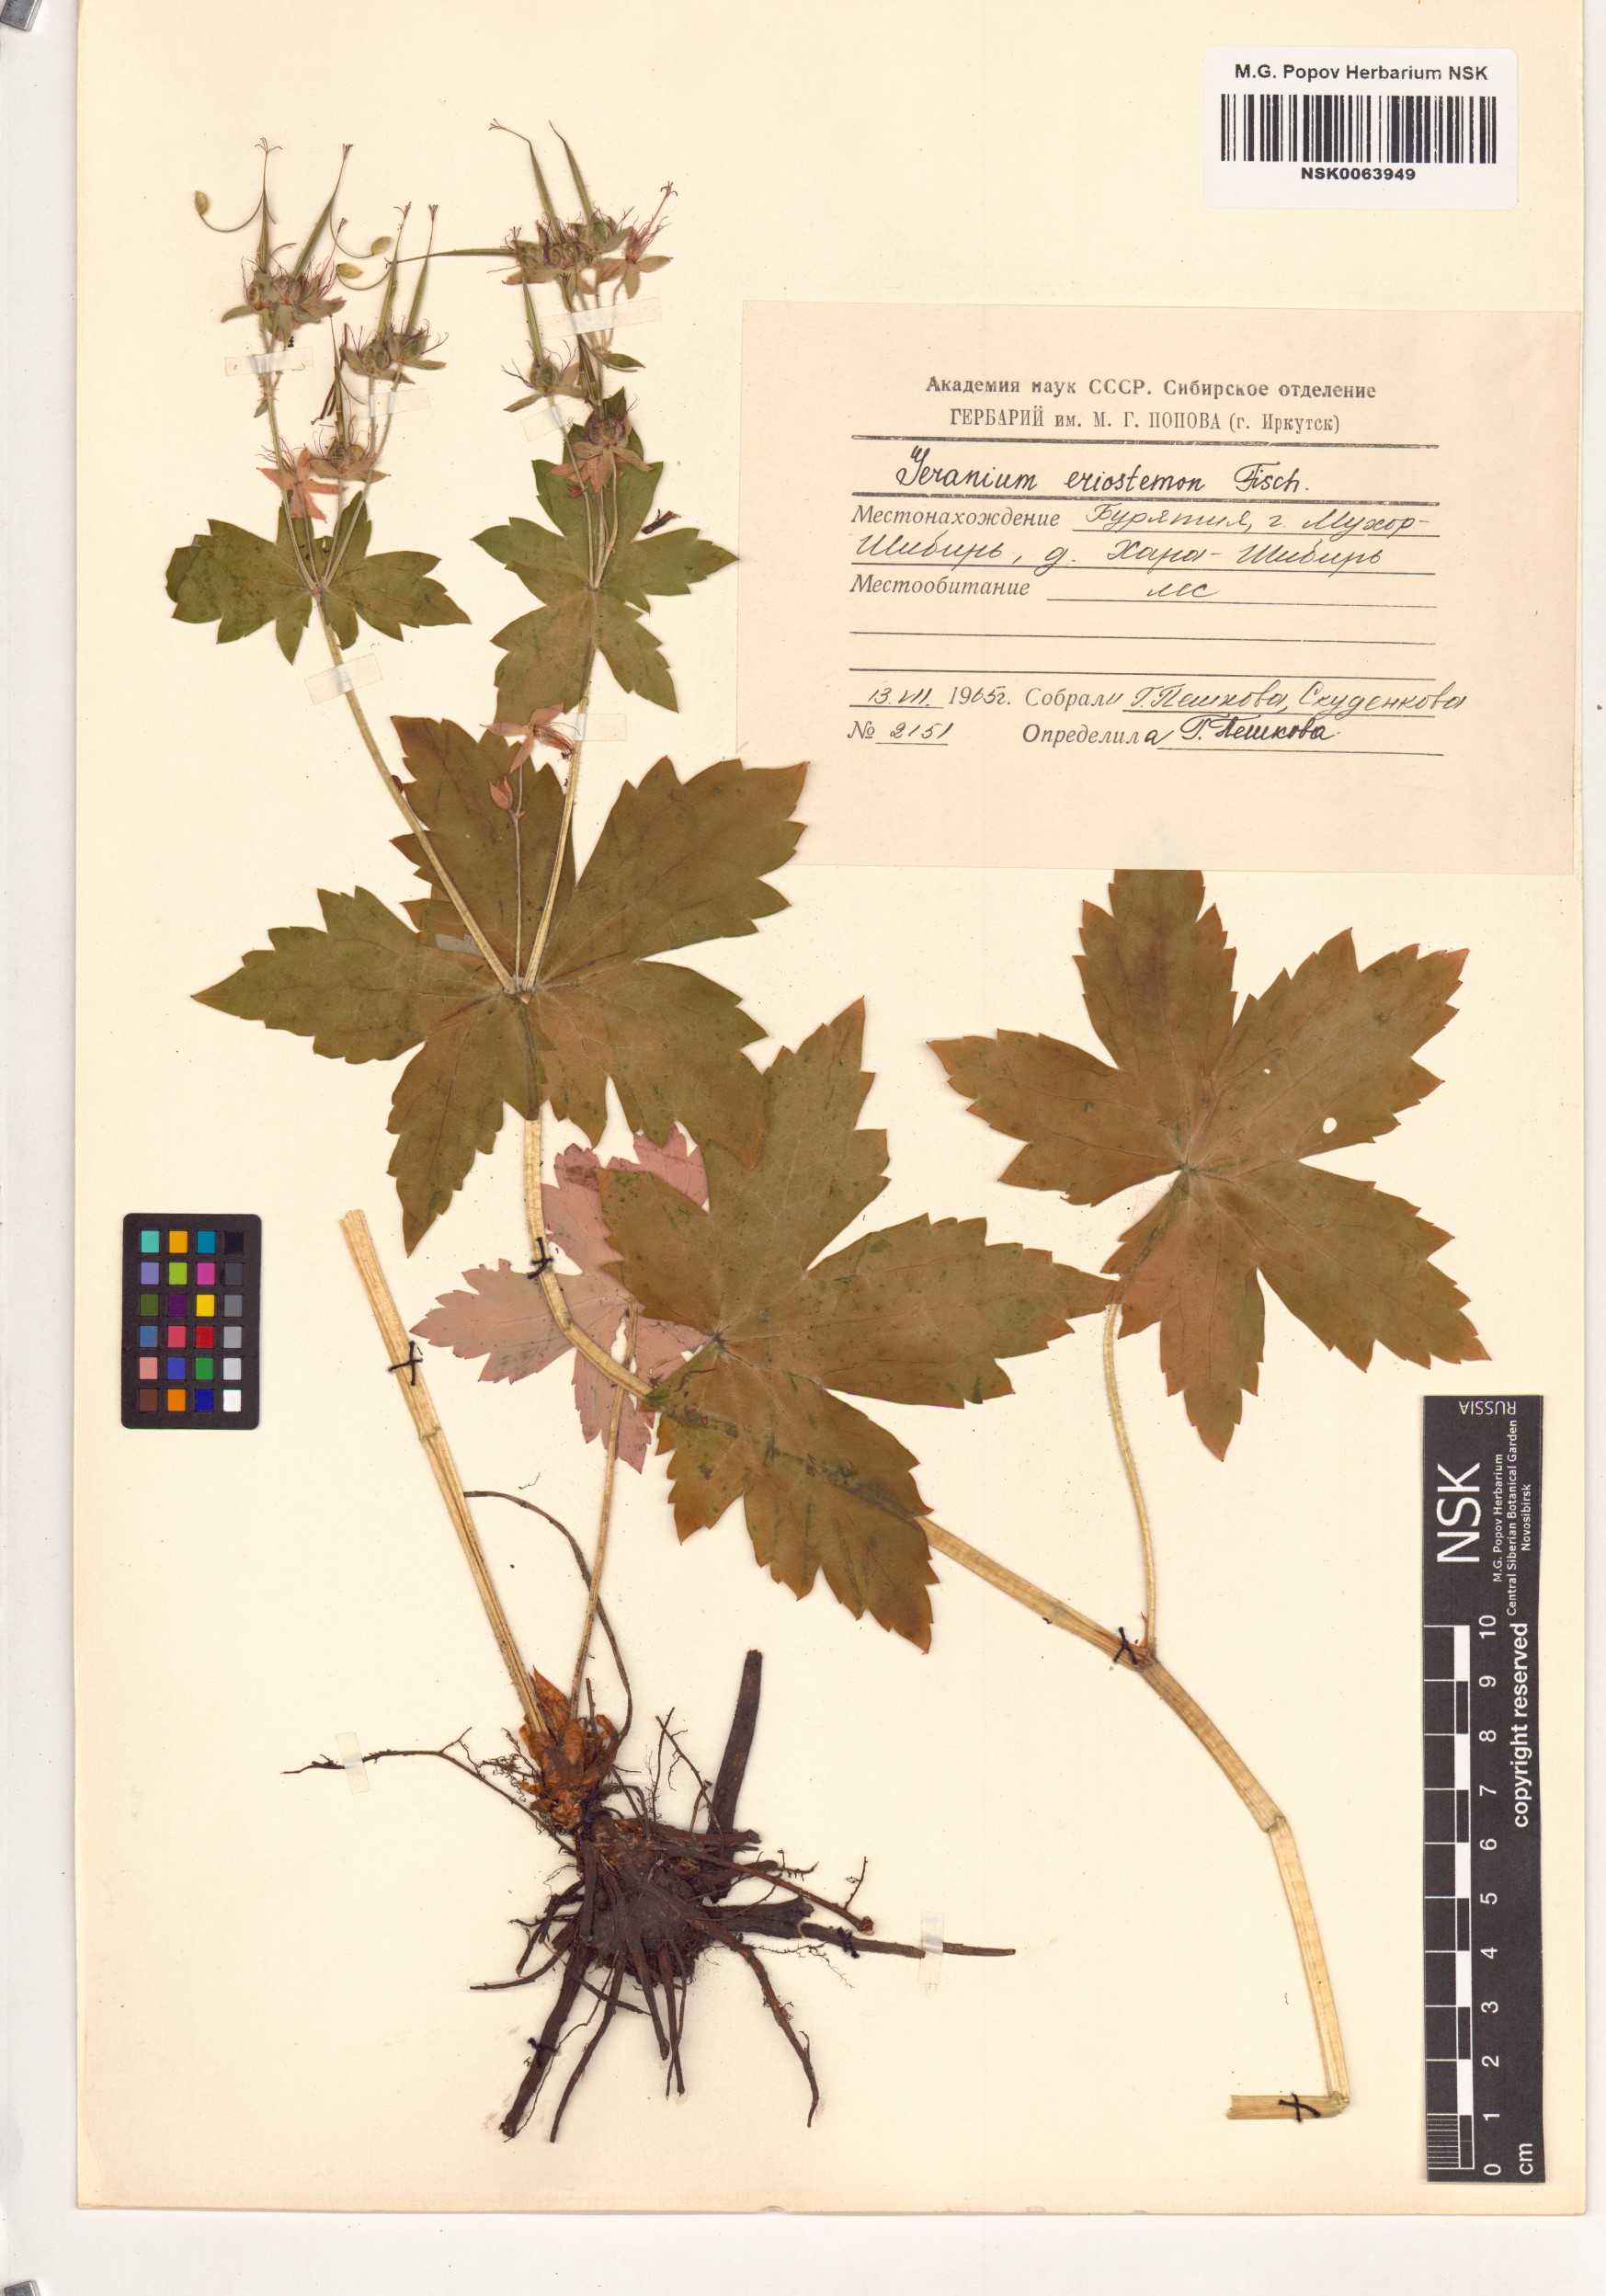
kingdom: Plantae
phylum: Tracheophyta
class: Magnoliopsida
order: Geraniales
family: Geraniaceae
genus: Geranium
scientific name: Geranium platyanthum
